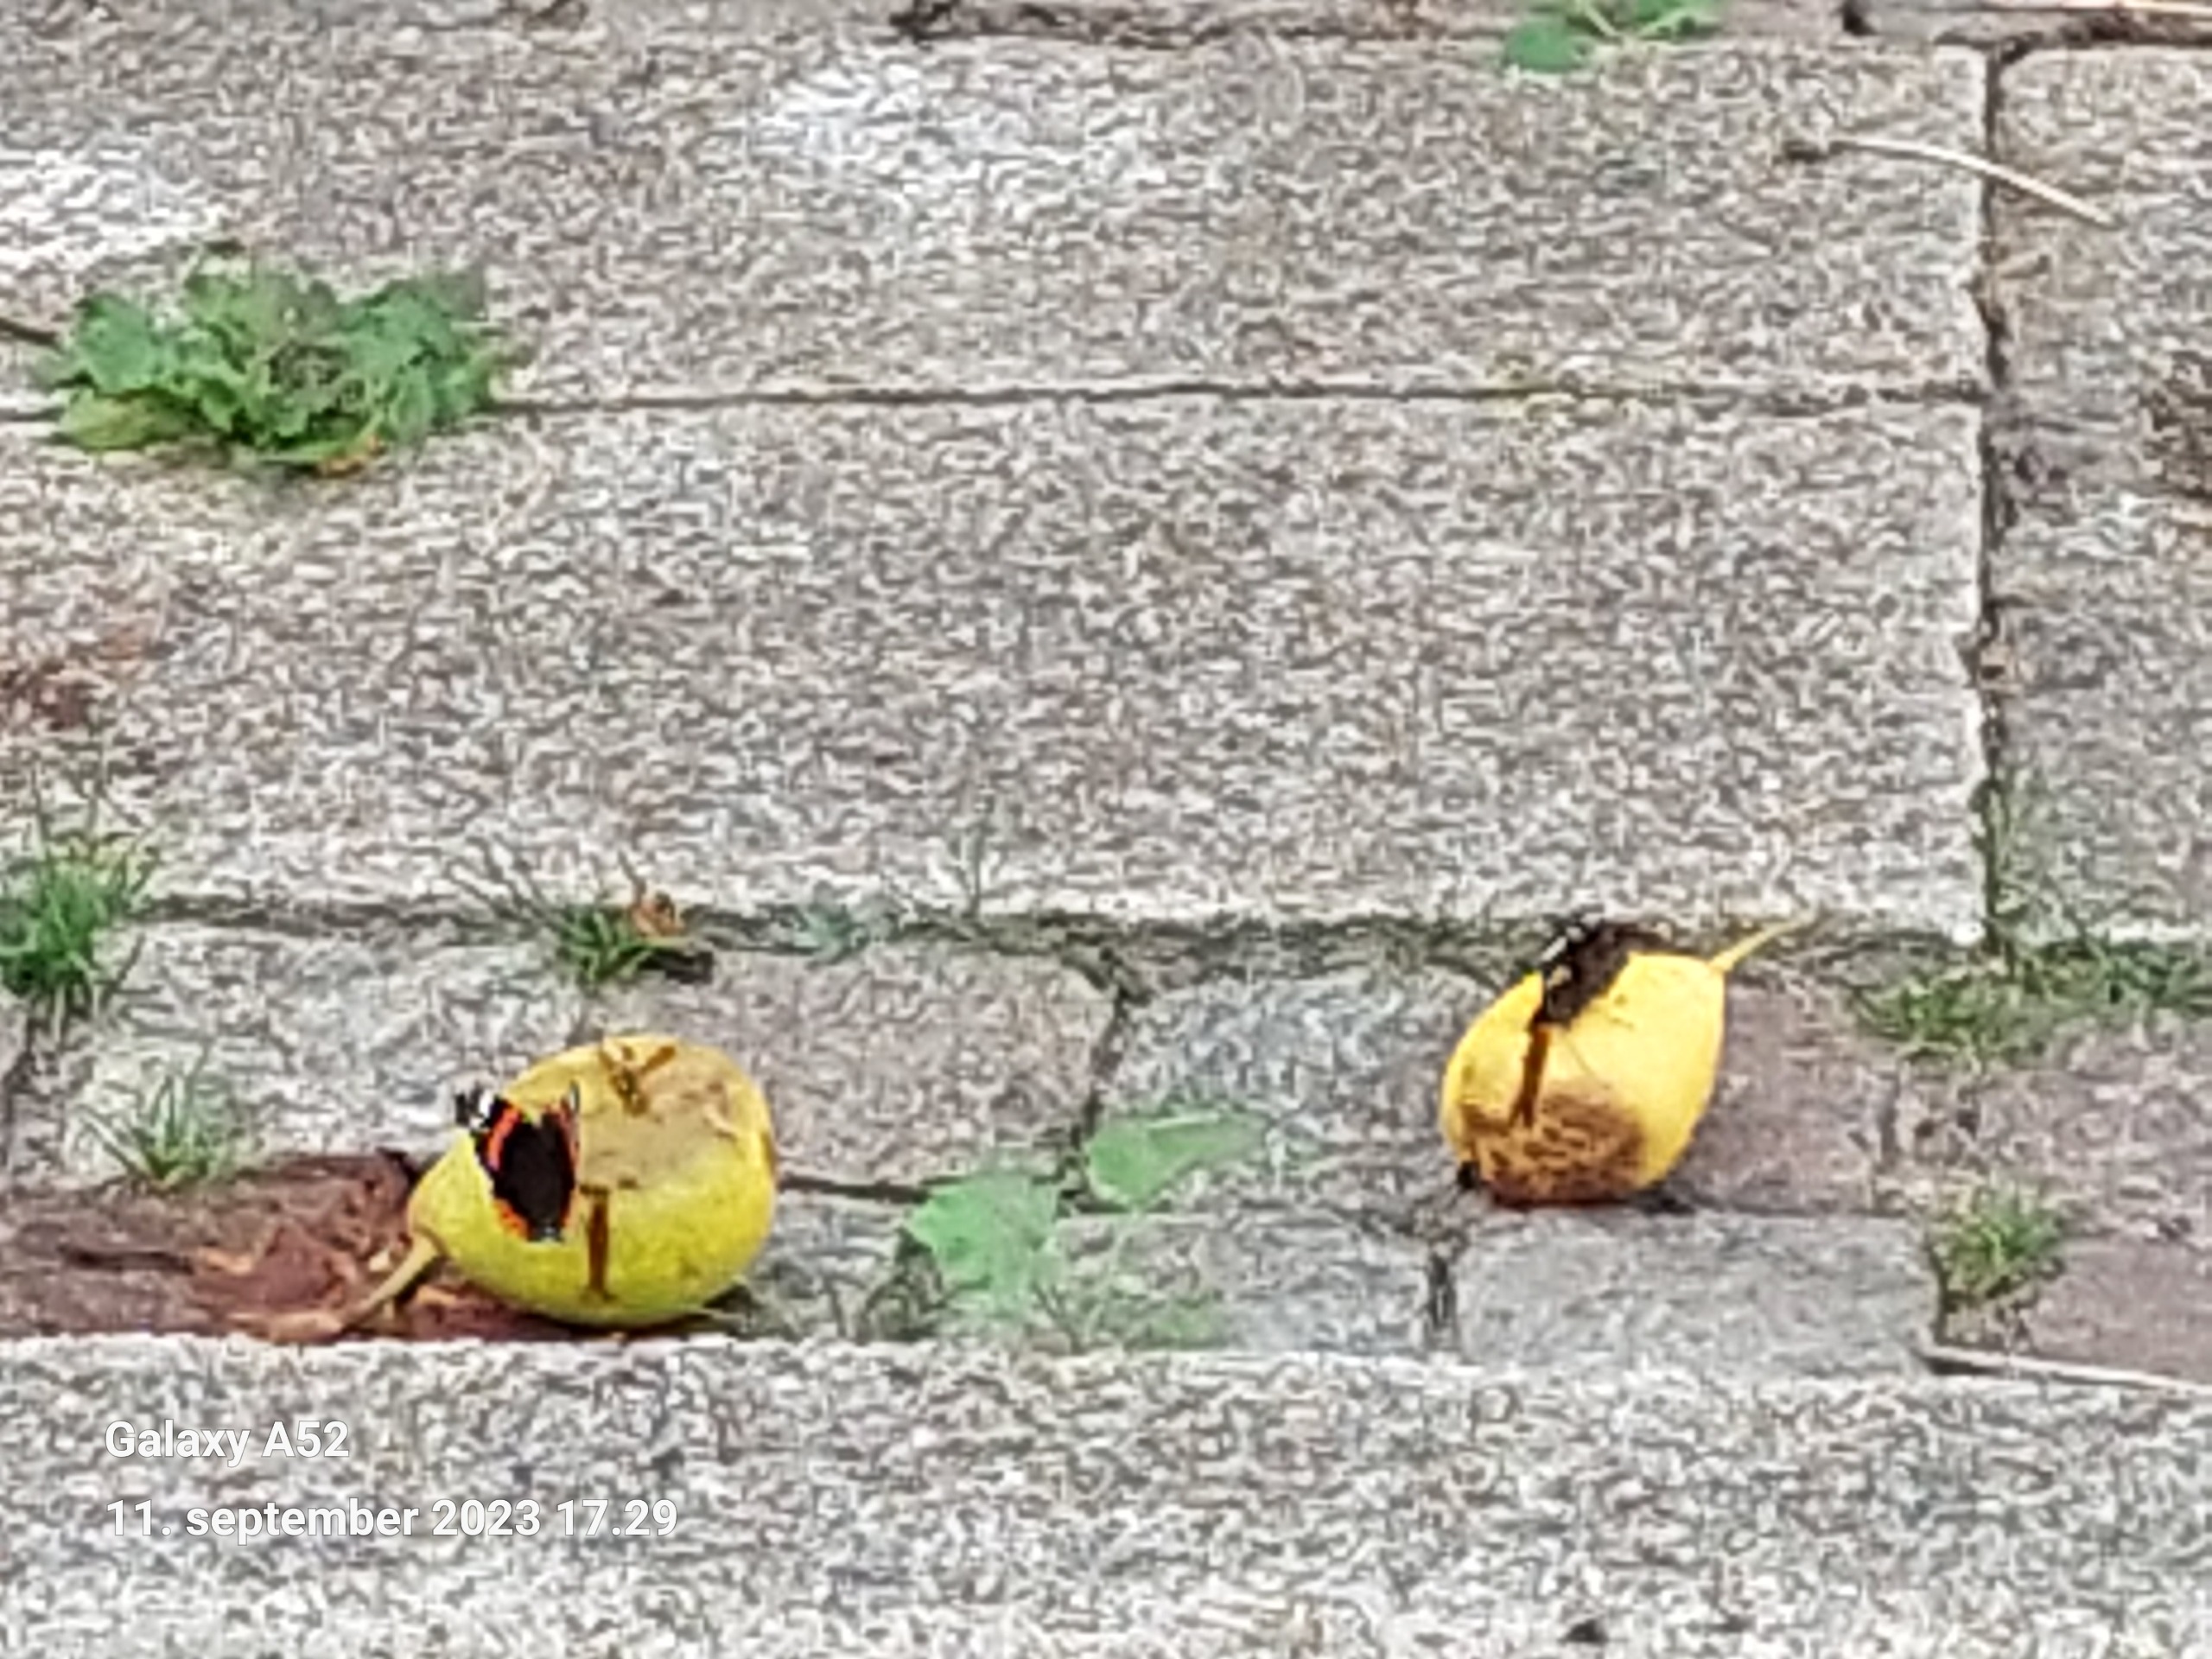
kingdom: Animalia
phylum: Arthropoda
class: Insecta
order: Lepidoptera
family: Nymphalidae
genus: Vanessa
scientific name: Vanessa atalanta
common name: Admiral
